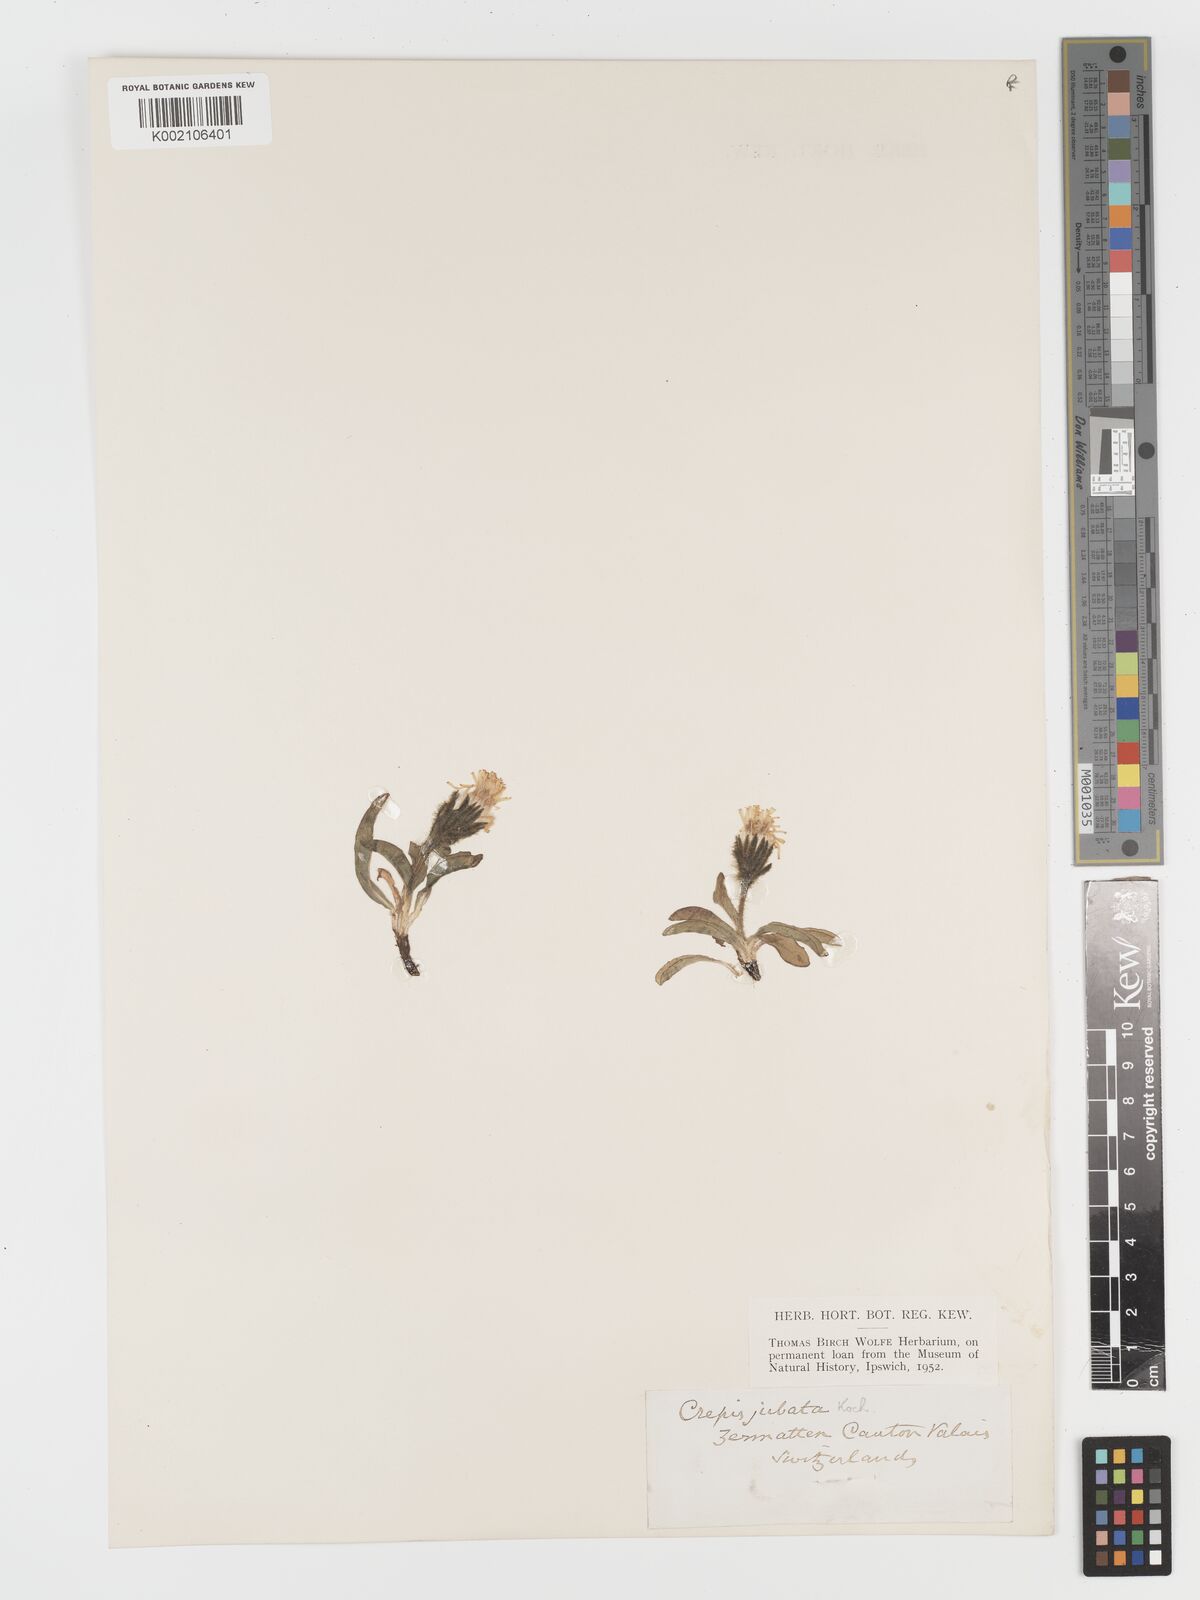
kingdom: Plantae
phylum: Tracheophyta
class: Magnoliopsida
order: Asterales
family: Asteraceae
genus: Crepis
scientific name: Crepis rhaetica
